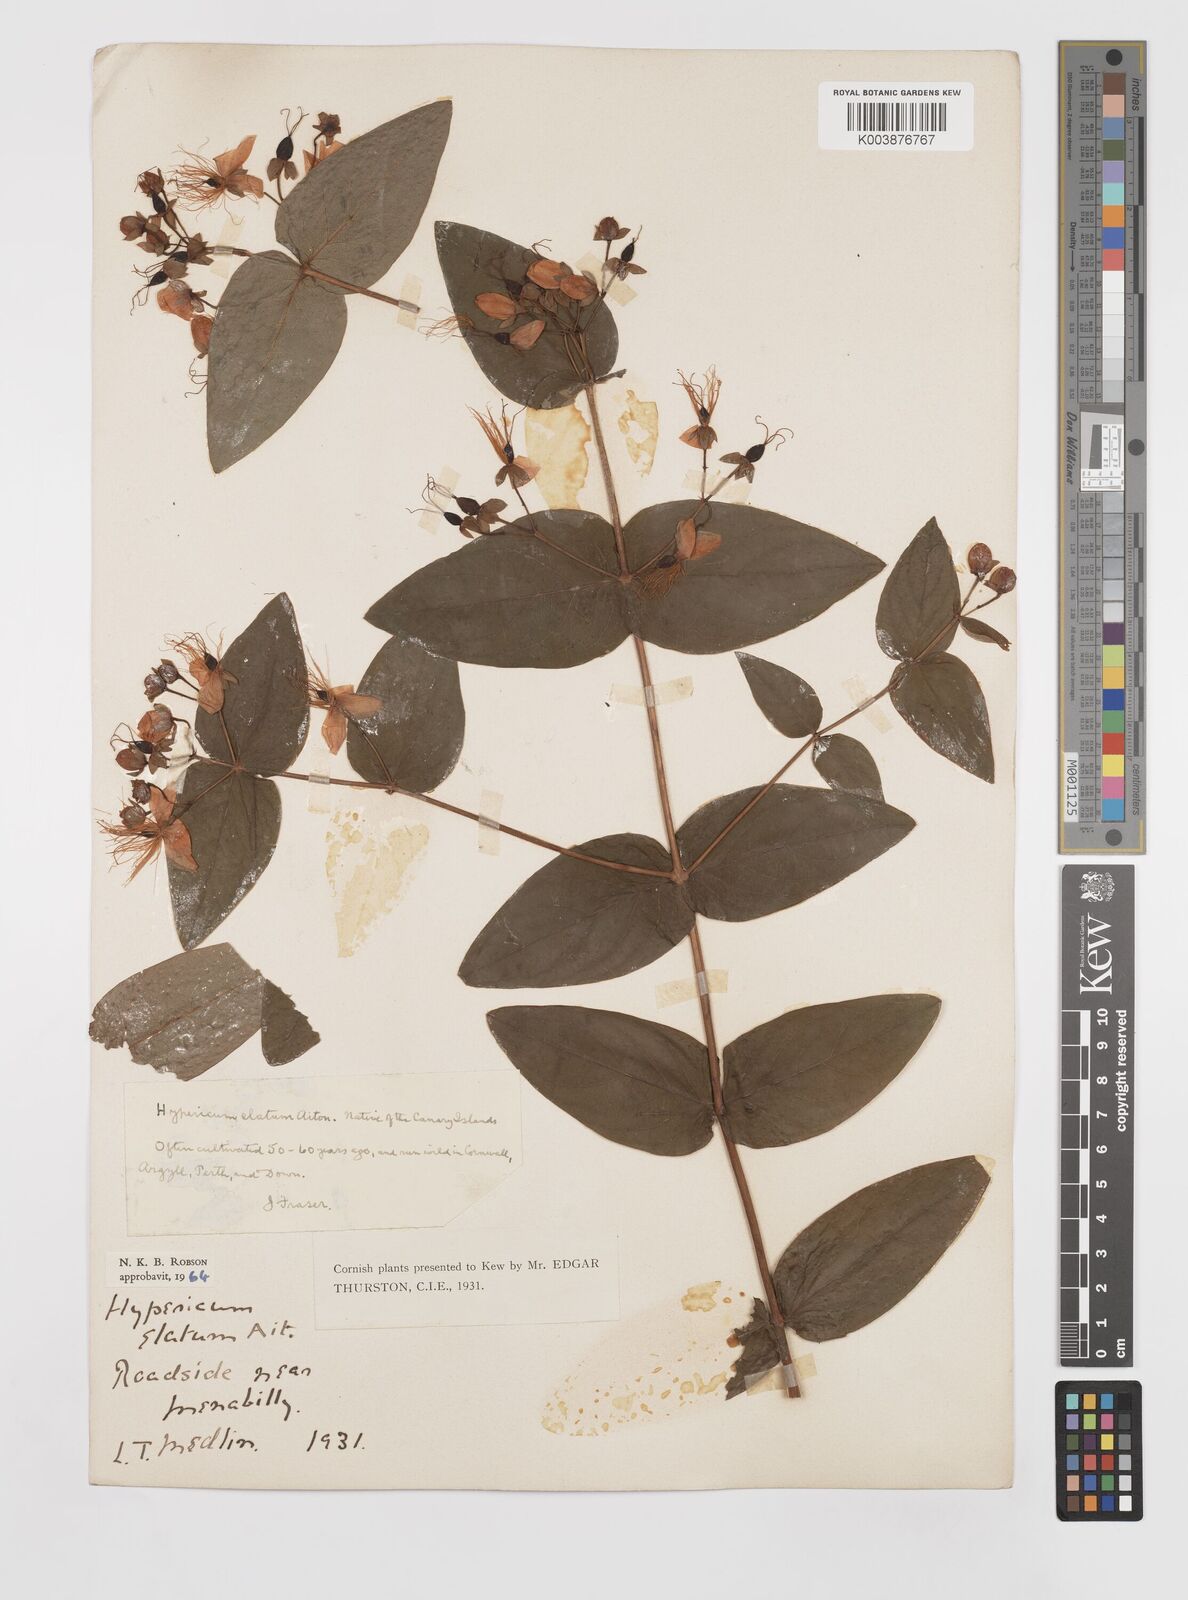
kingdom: Plantae
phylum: Tracheophyta
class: Magnoliopsida
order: Malpighiales
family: Hypericaceae
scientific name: Hypericaceae
